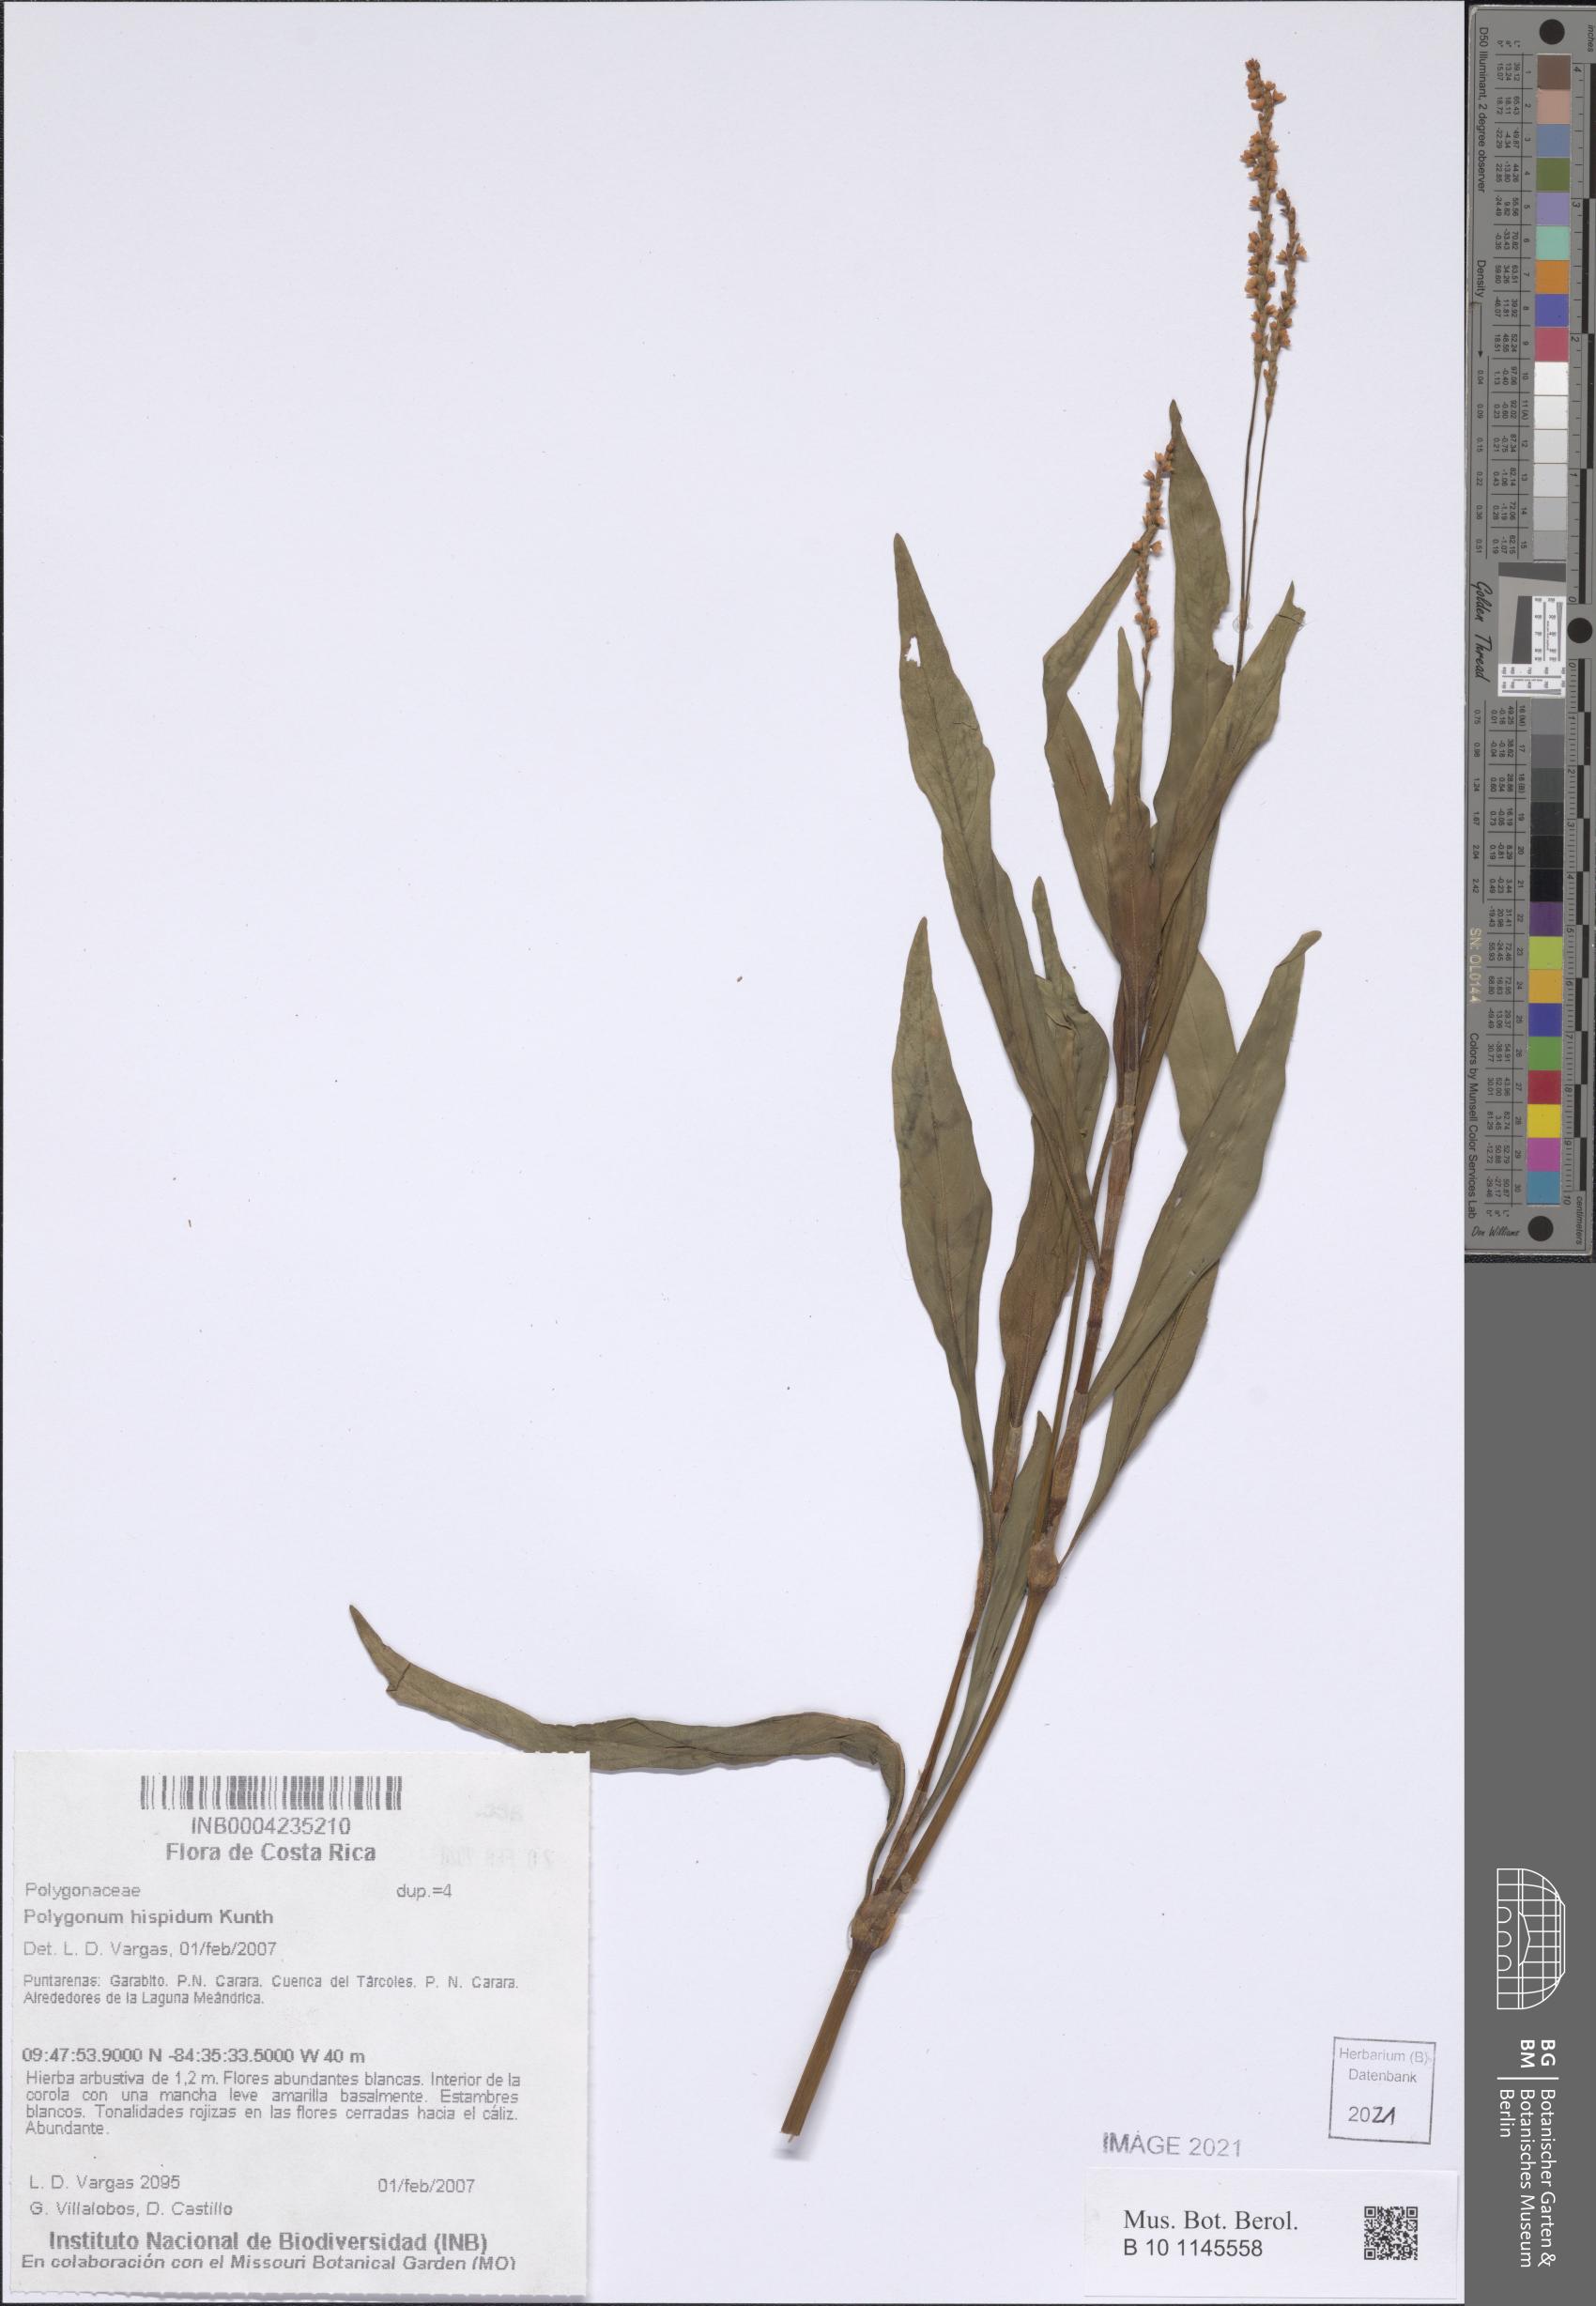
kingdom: Plantae
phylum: Tracheophyta
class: Magnoliopsida
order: Caryophyllales
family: Polygonaceae
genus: Persicaria
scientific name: Persicaria hydropiperoides
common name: Swamp smartweed
